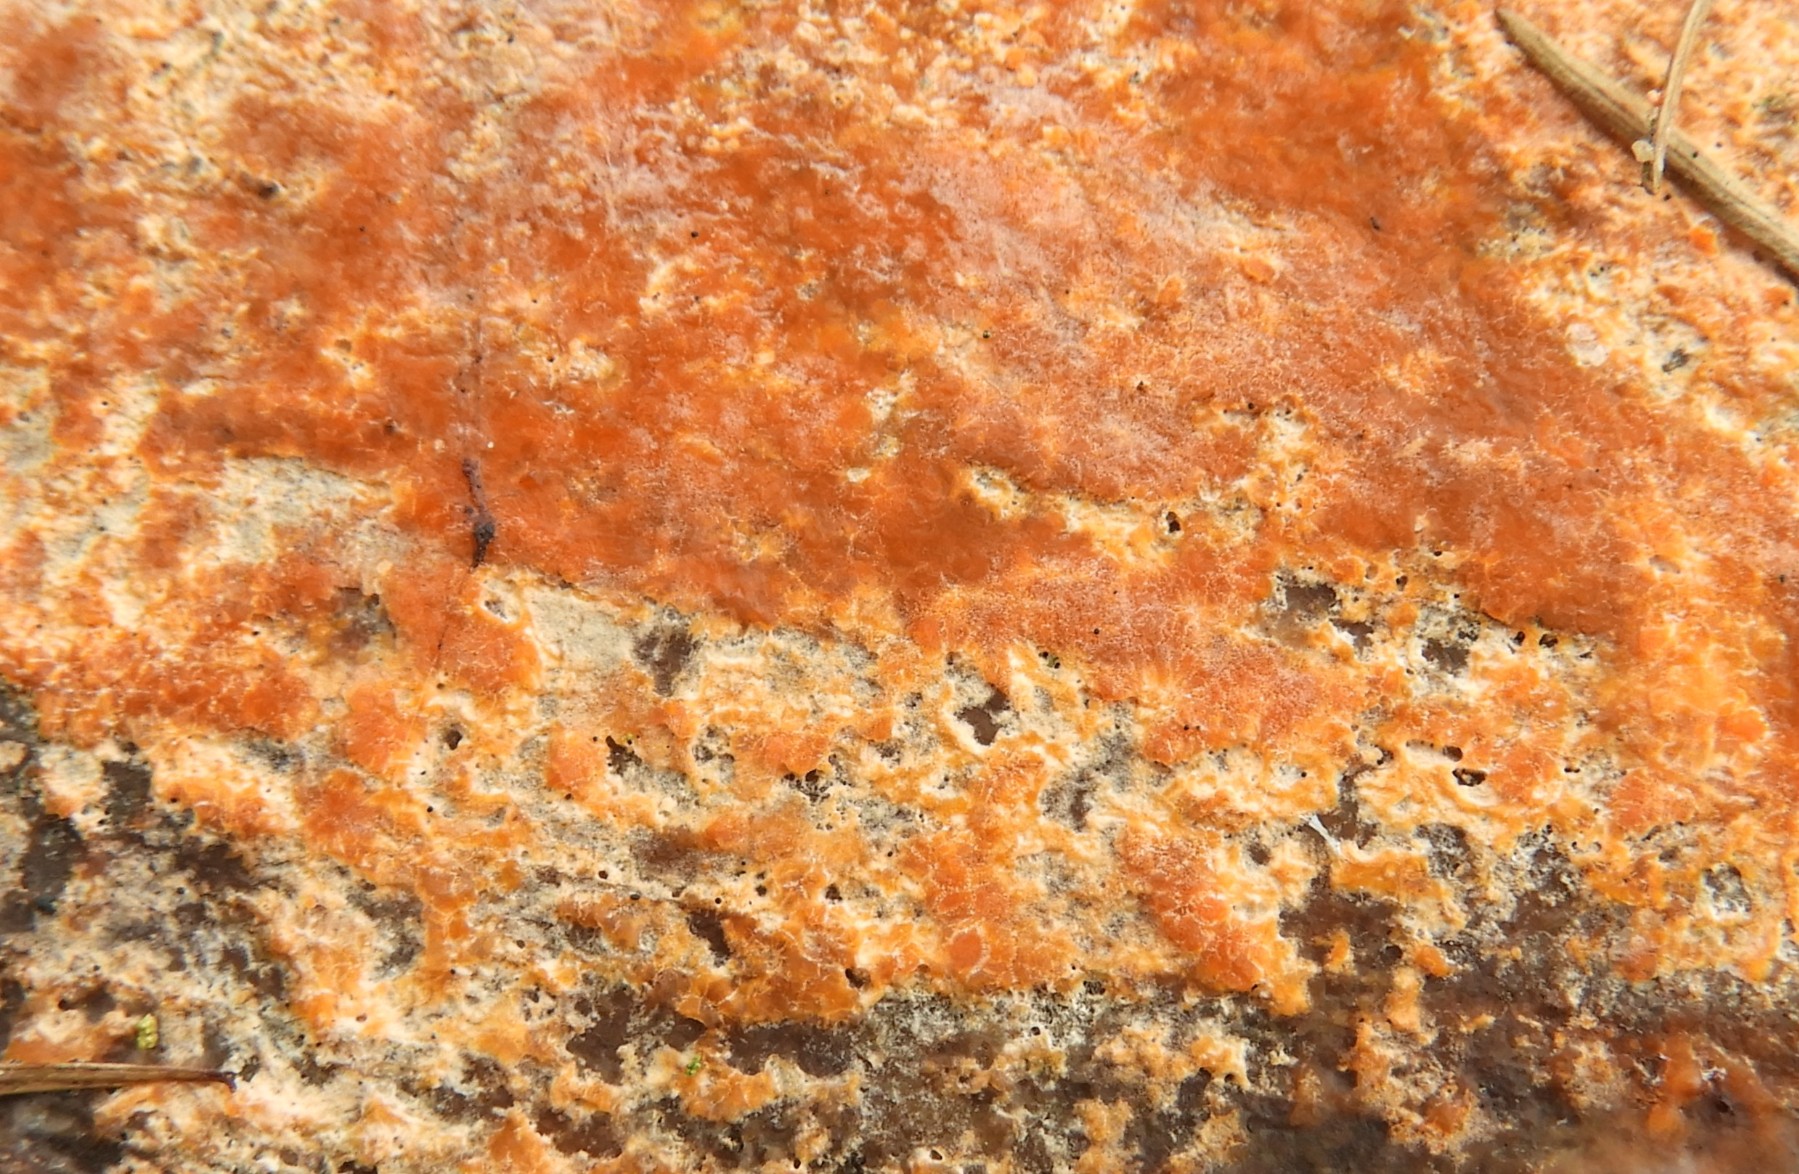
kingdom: Fungi
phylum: Basidiomycota
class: Agaricomycetes
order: Russulales
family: Peniophoraceae
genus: Peniophora
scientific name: Peniophora incarnata
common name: laksefarvet voksskind
